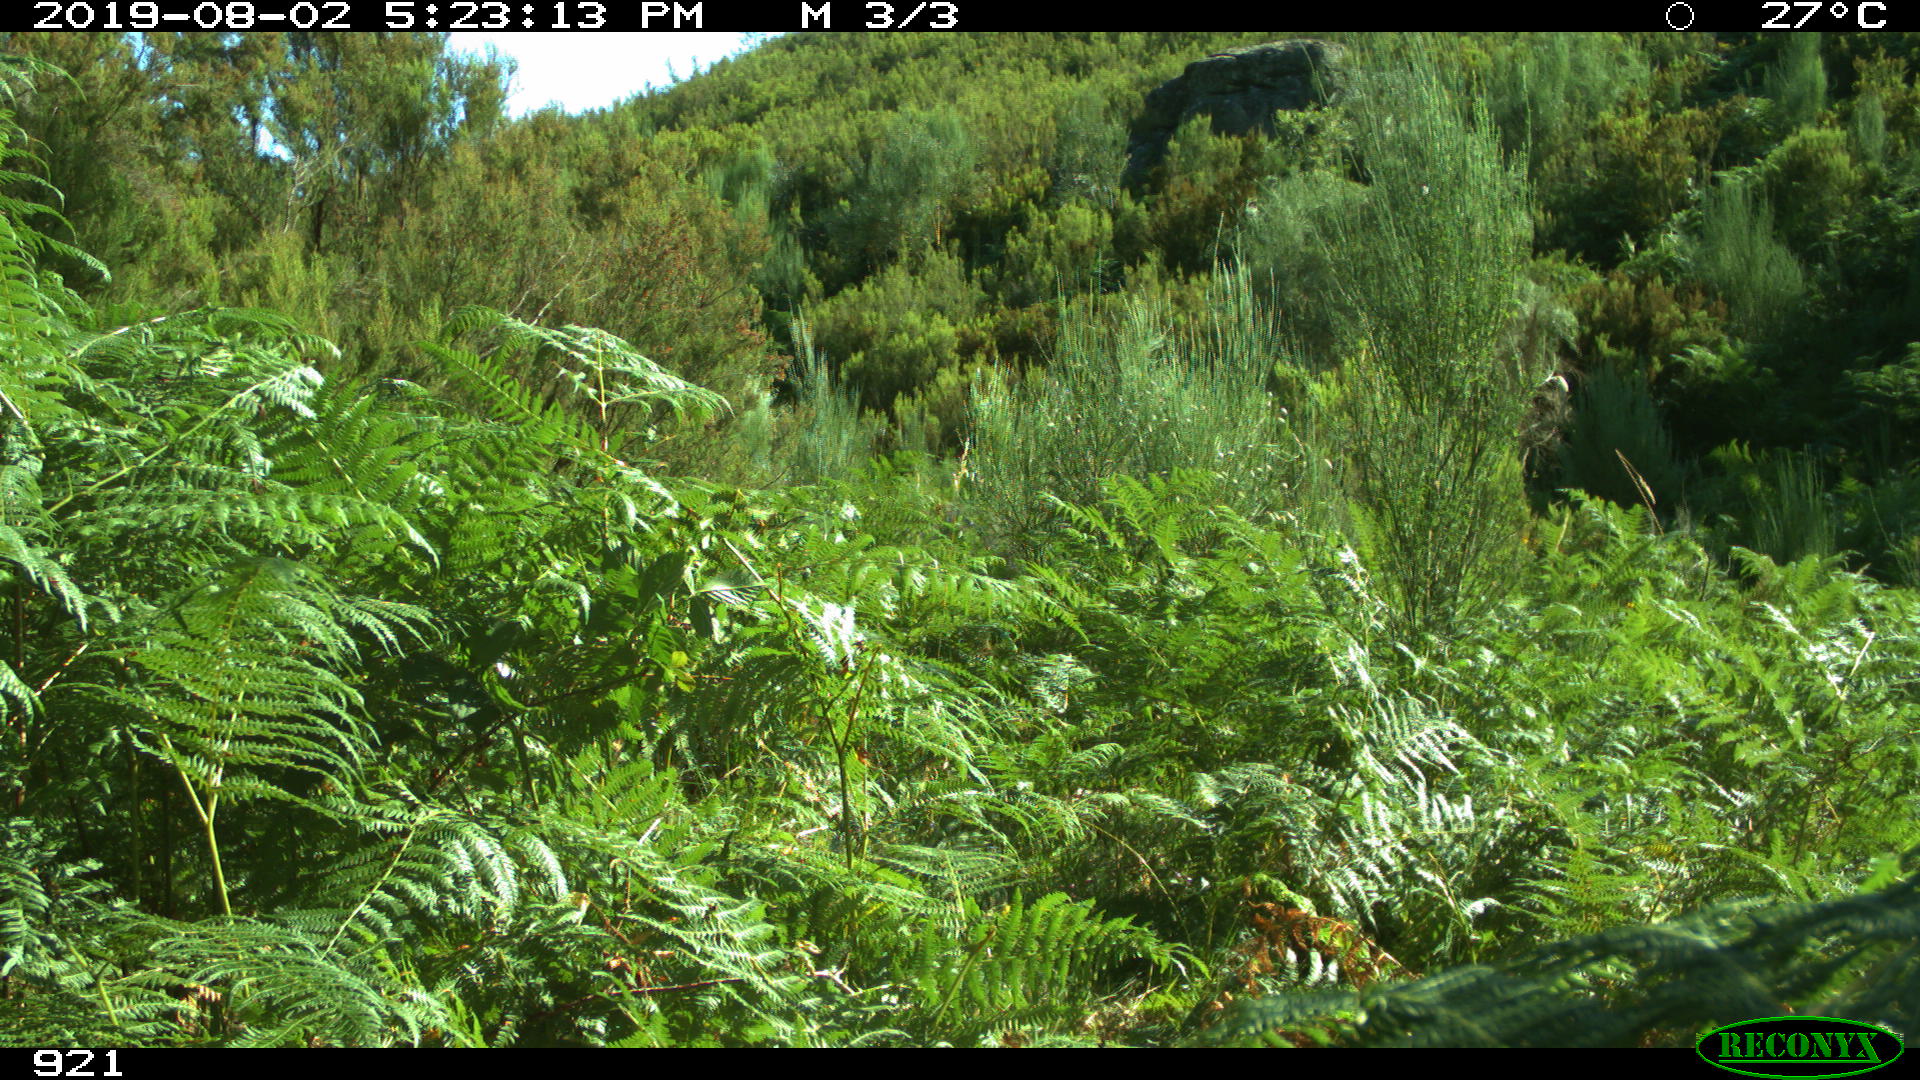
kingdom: Animalia
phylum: Chordata
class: Mammalia
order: Artiodactyla
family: Suidae
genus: Sus
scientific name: Sus scrofa
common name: Wild boar
